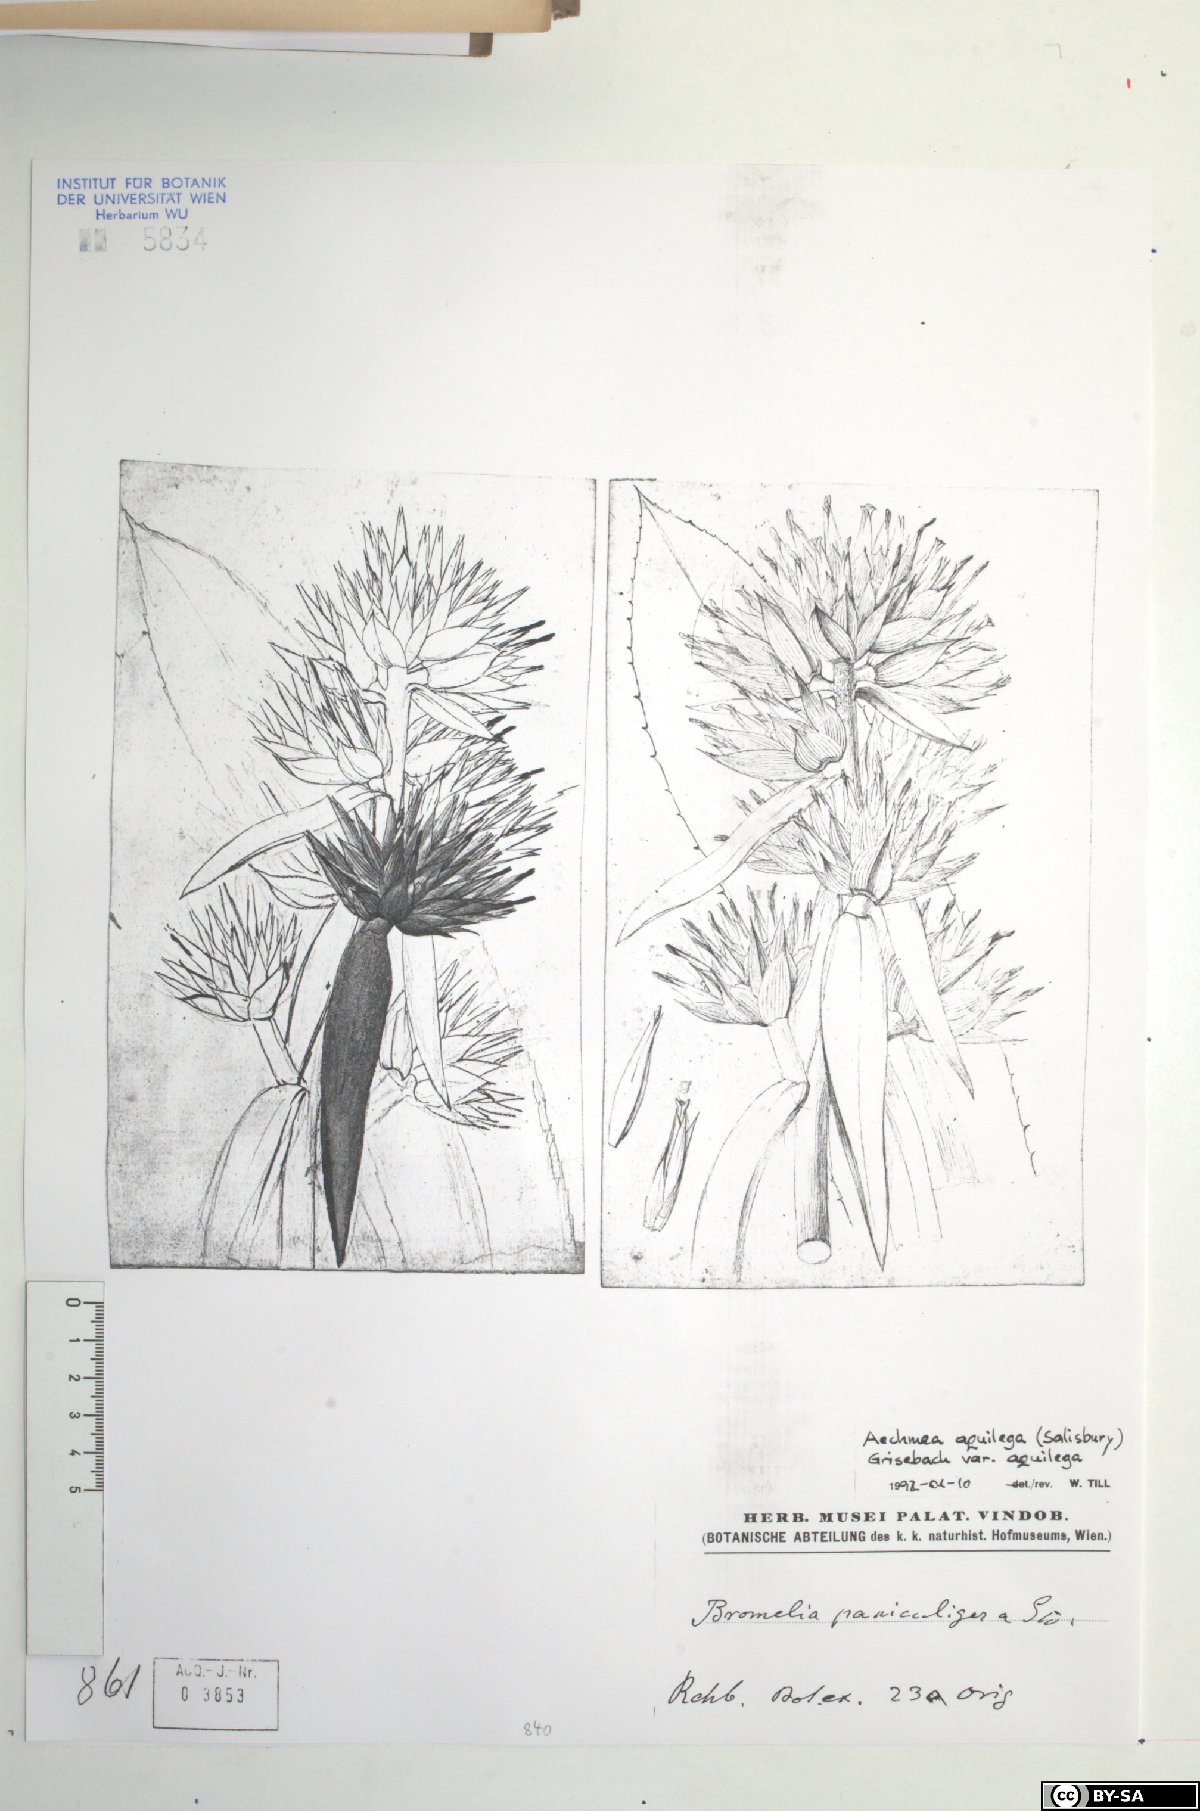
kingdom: Plantae
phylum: Tracheophyta
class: Liliopsida
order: Poales
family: Bromeliaceae
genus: Aechmea
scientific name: Aechmea aquilega
